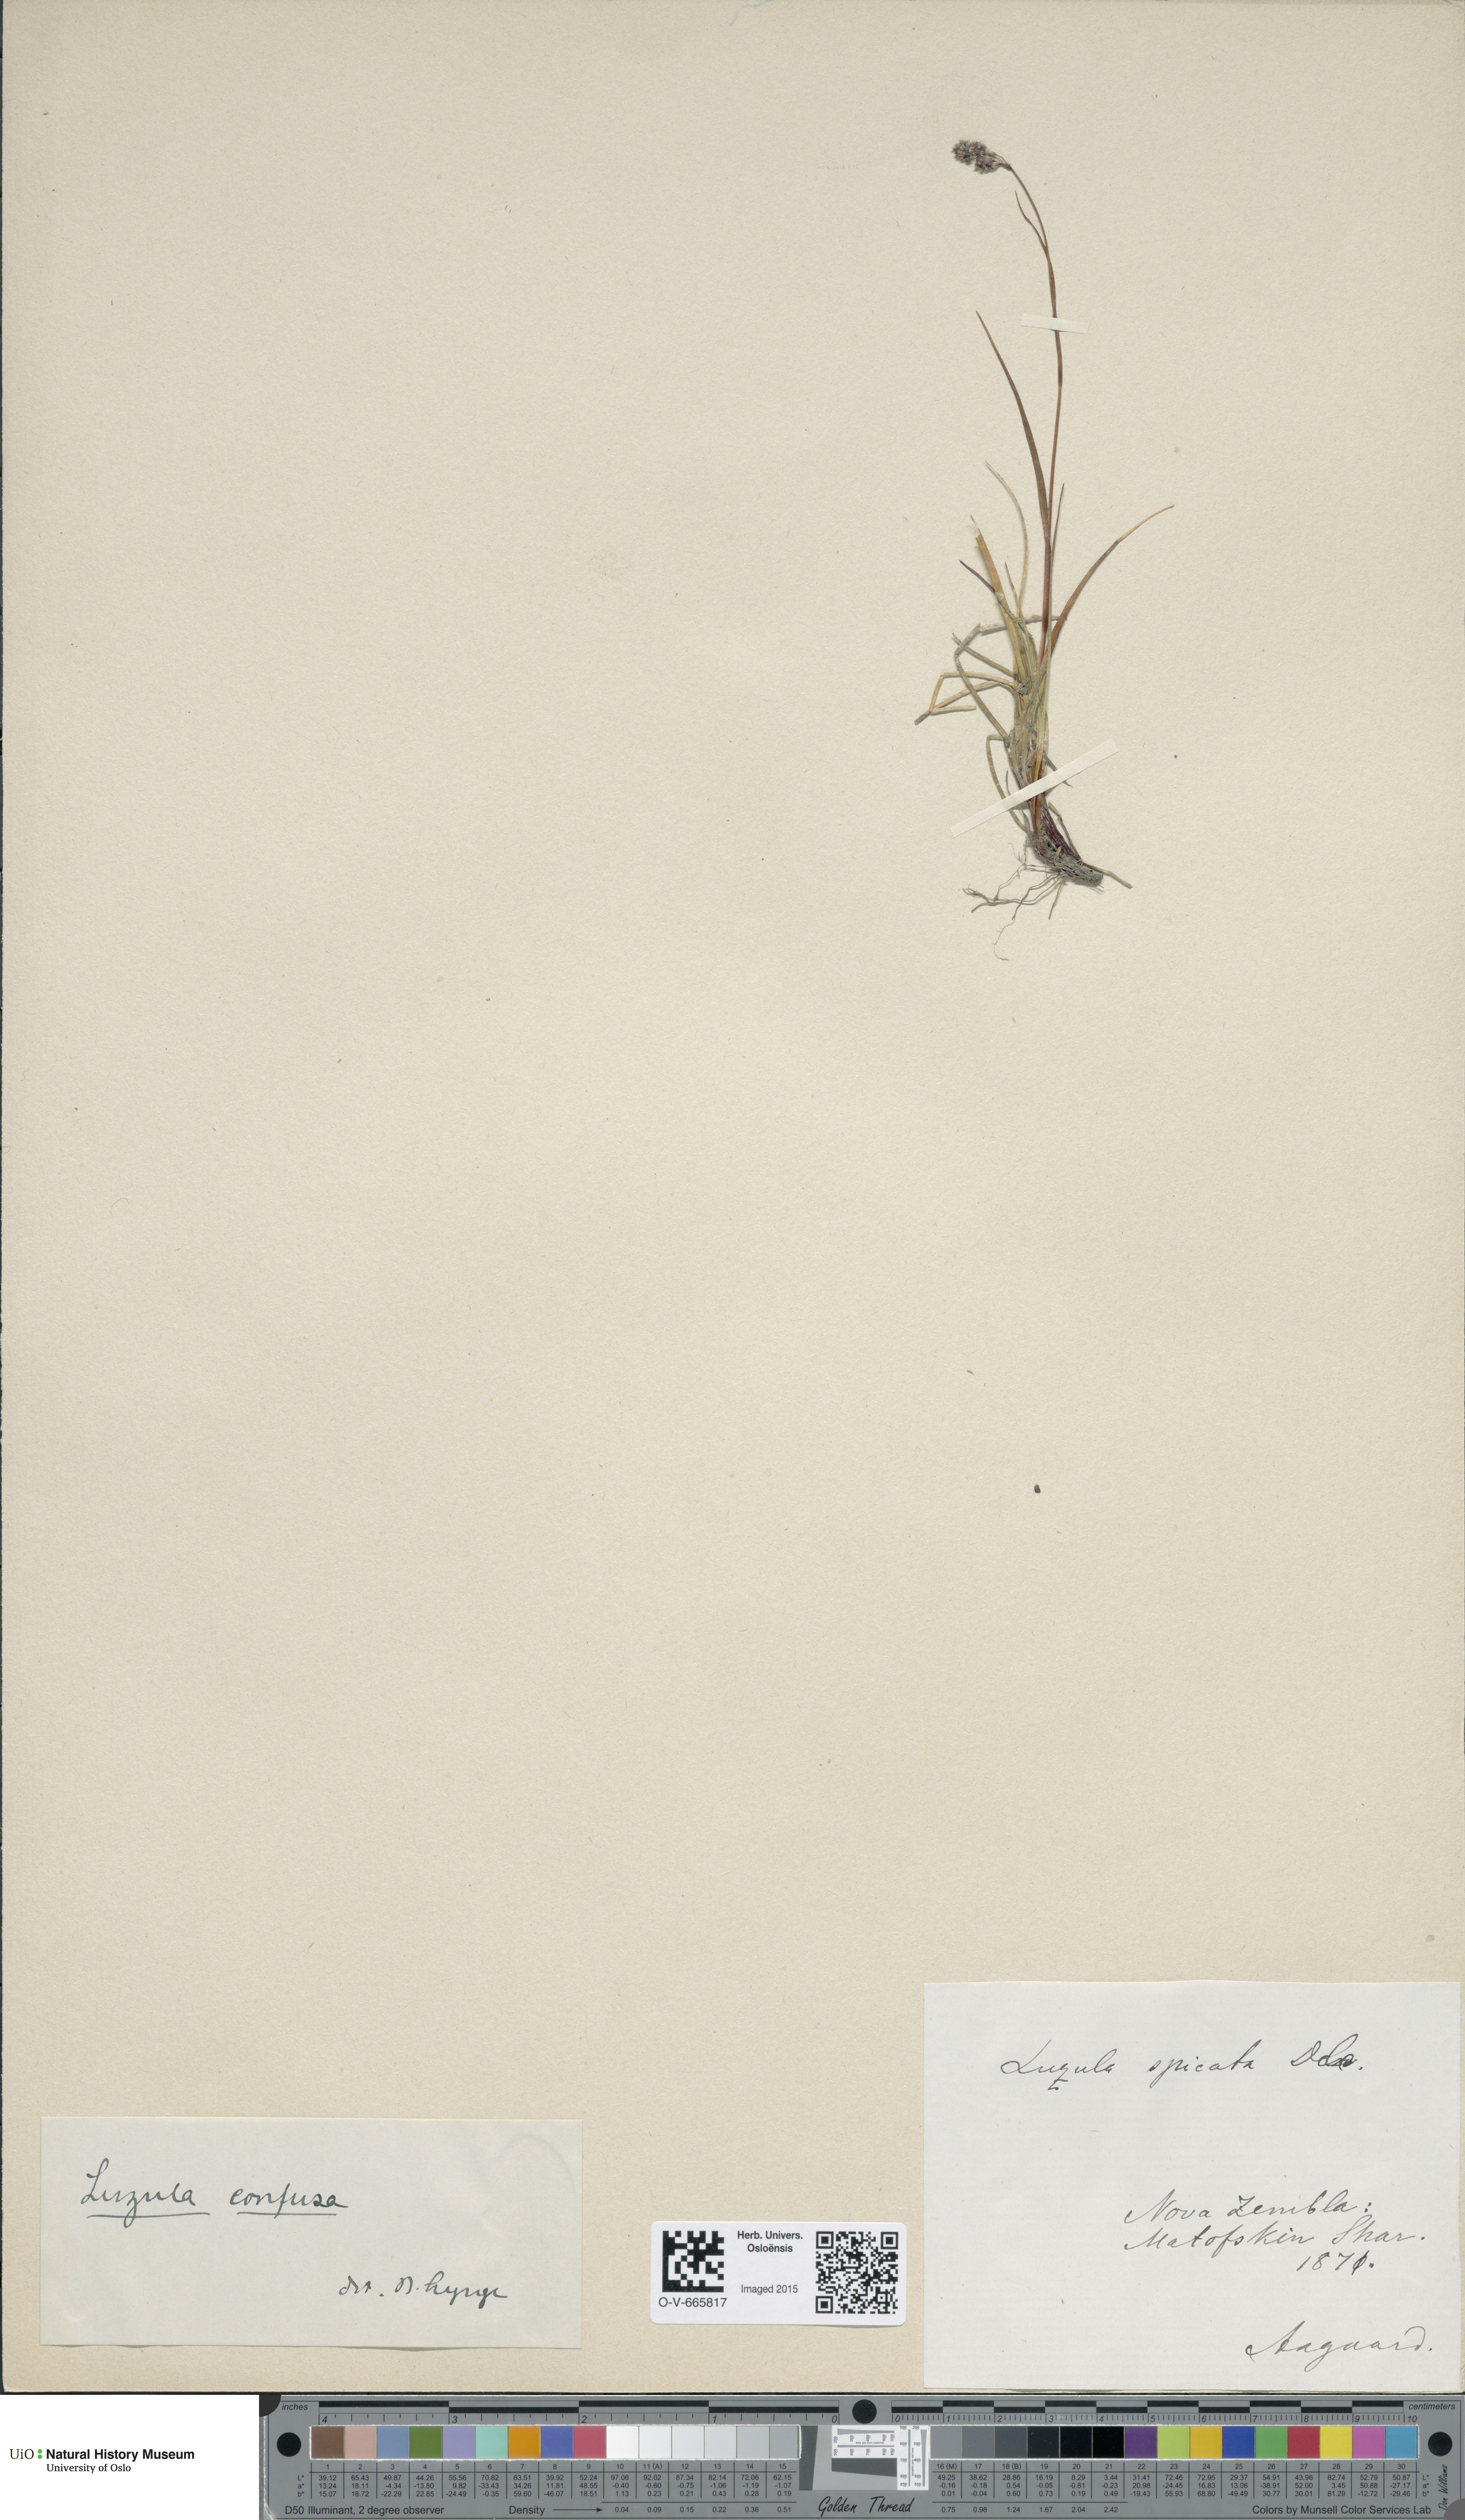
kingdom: Plantae
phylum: Tracheophyta
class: Liliopsida
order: Poales
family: Juncaceae
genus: Luzula
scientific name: Luzula confusa
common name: Northern wood rush
